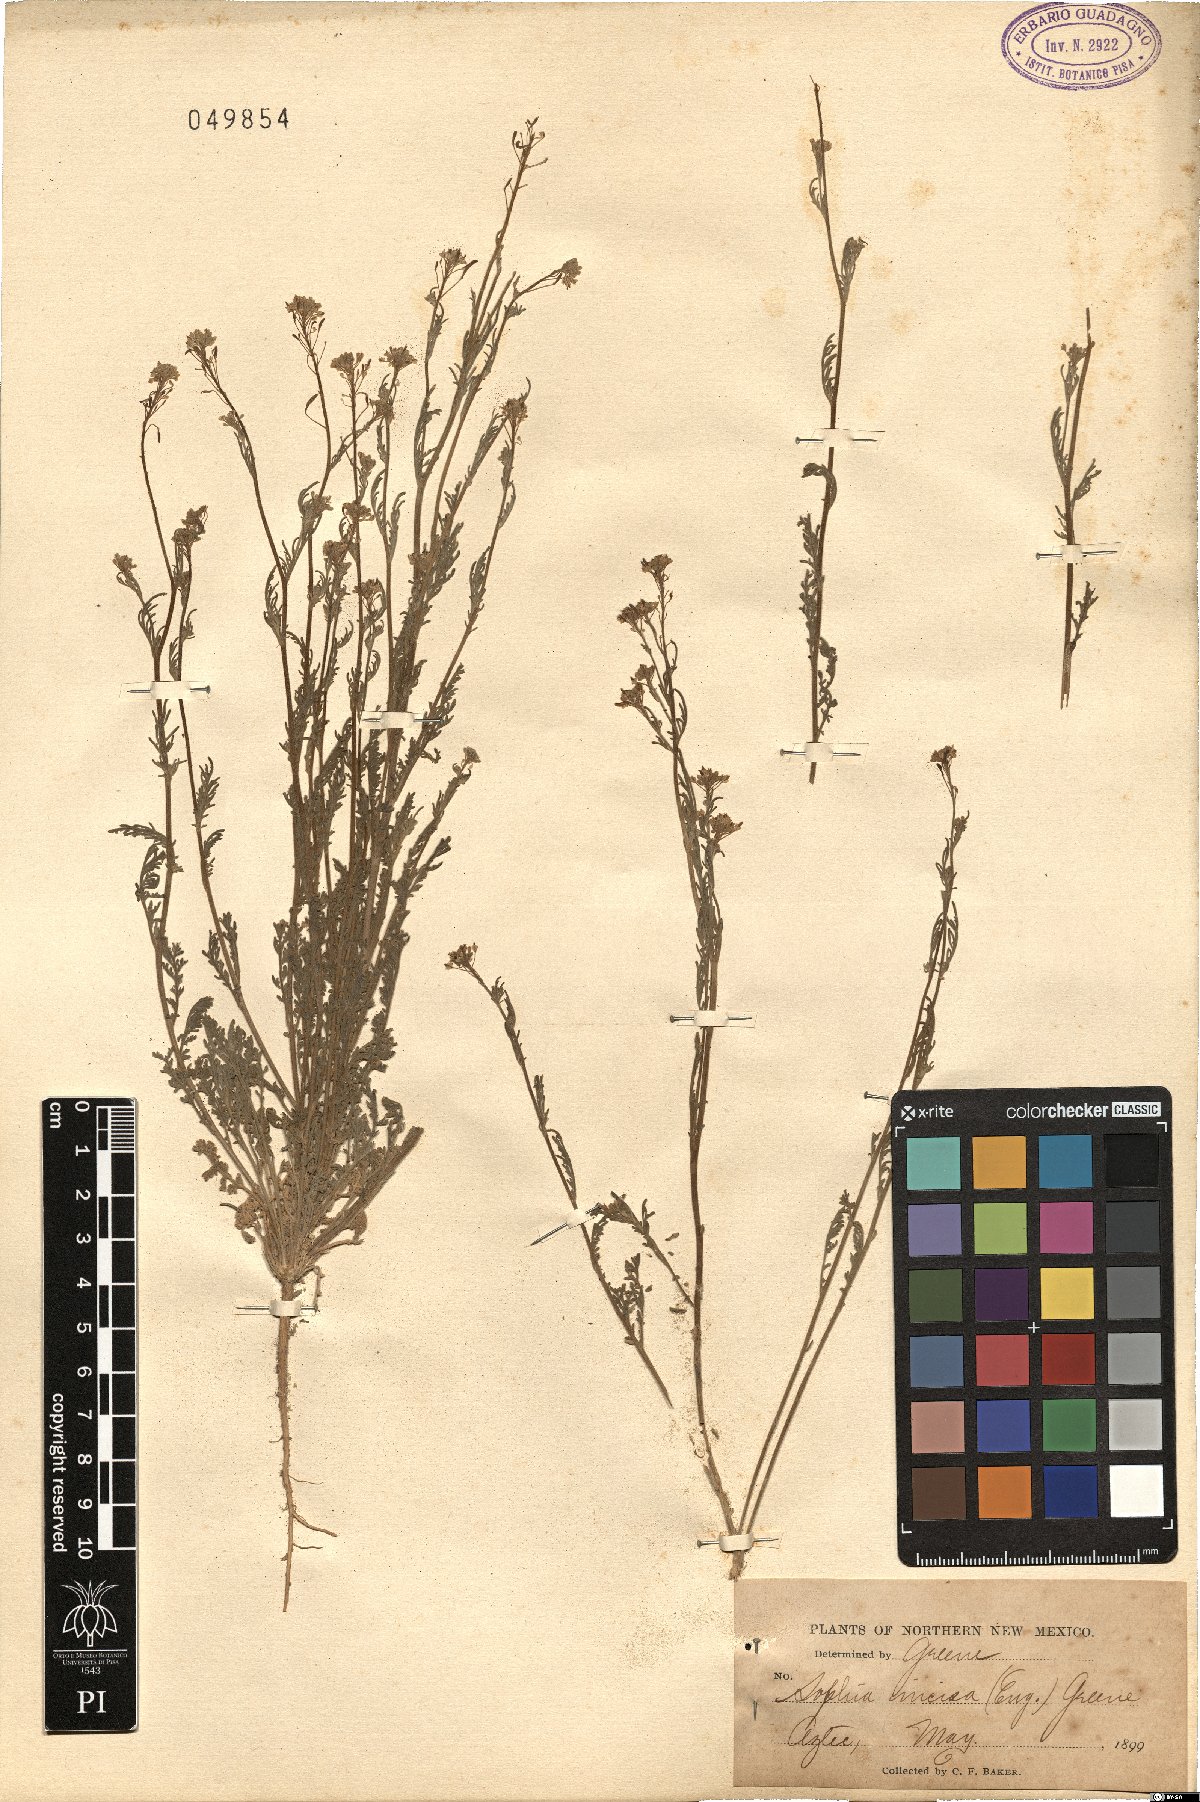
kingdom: Plantae
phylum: Tracheophyta
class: Magnoliopsida
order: Brassicales
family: Brassicaceae
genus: Descurainia
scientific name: Descurainia incisa
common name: Cut-leaved tansy mustard
